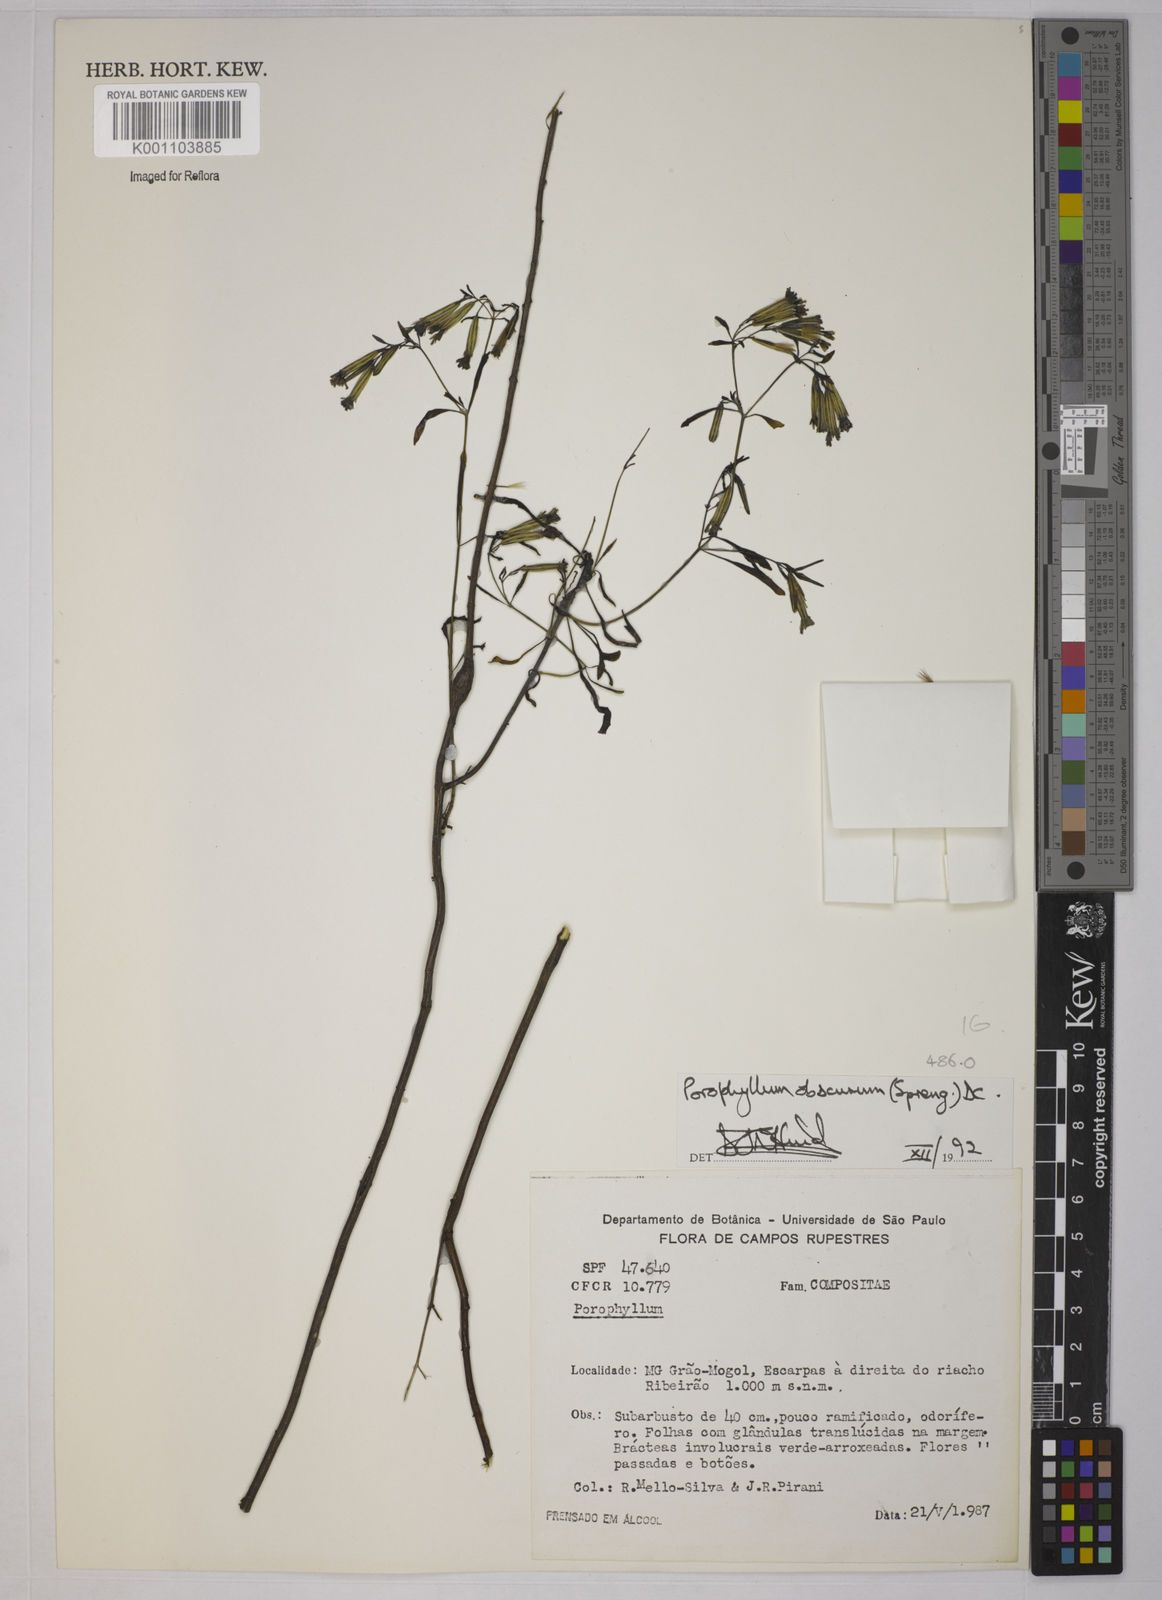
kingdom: Plantae
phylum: Tracheophyta
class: Magnoliopsida
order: Asterales
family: Asteraceae
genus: Porophyllum
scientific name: Porophyllum obscurum
